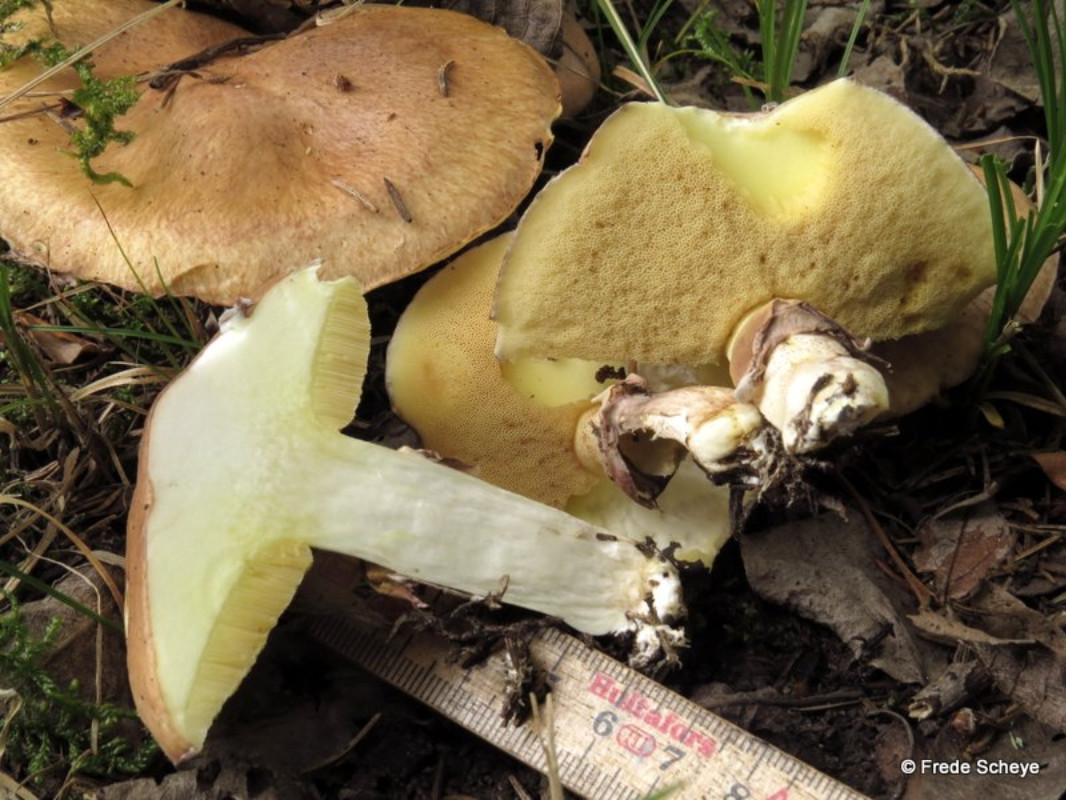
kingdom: Fungi
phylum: Basidiomycota
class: Agaricomycetes
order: Boletales
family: Suillaceae
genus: Suillus
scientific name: Suillus luteus
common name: brungul slimrørhat
